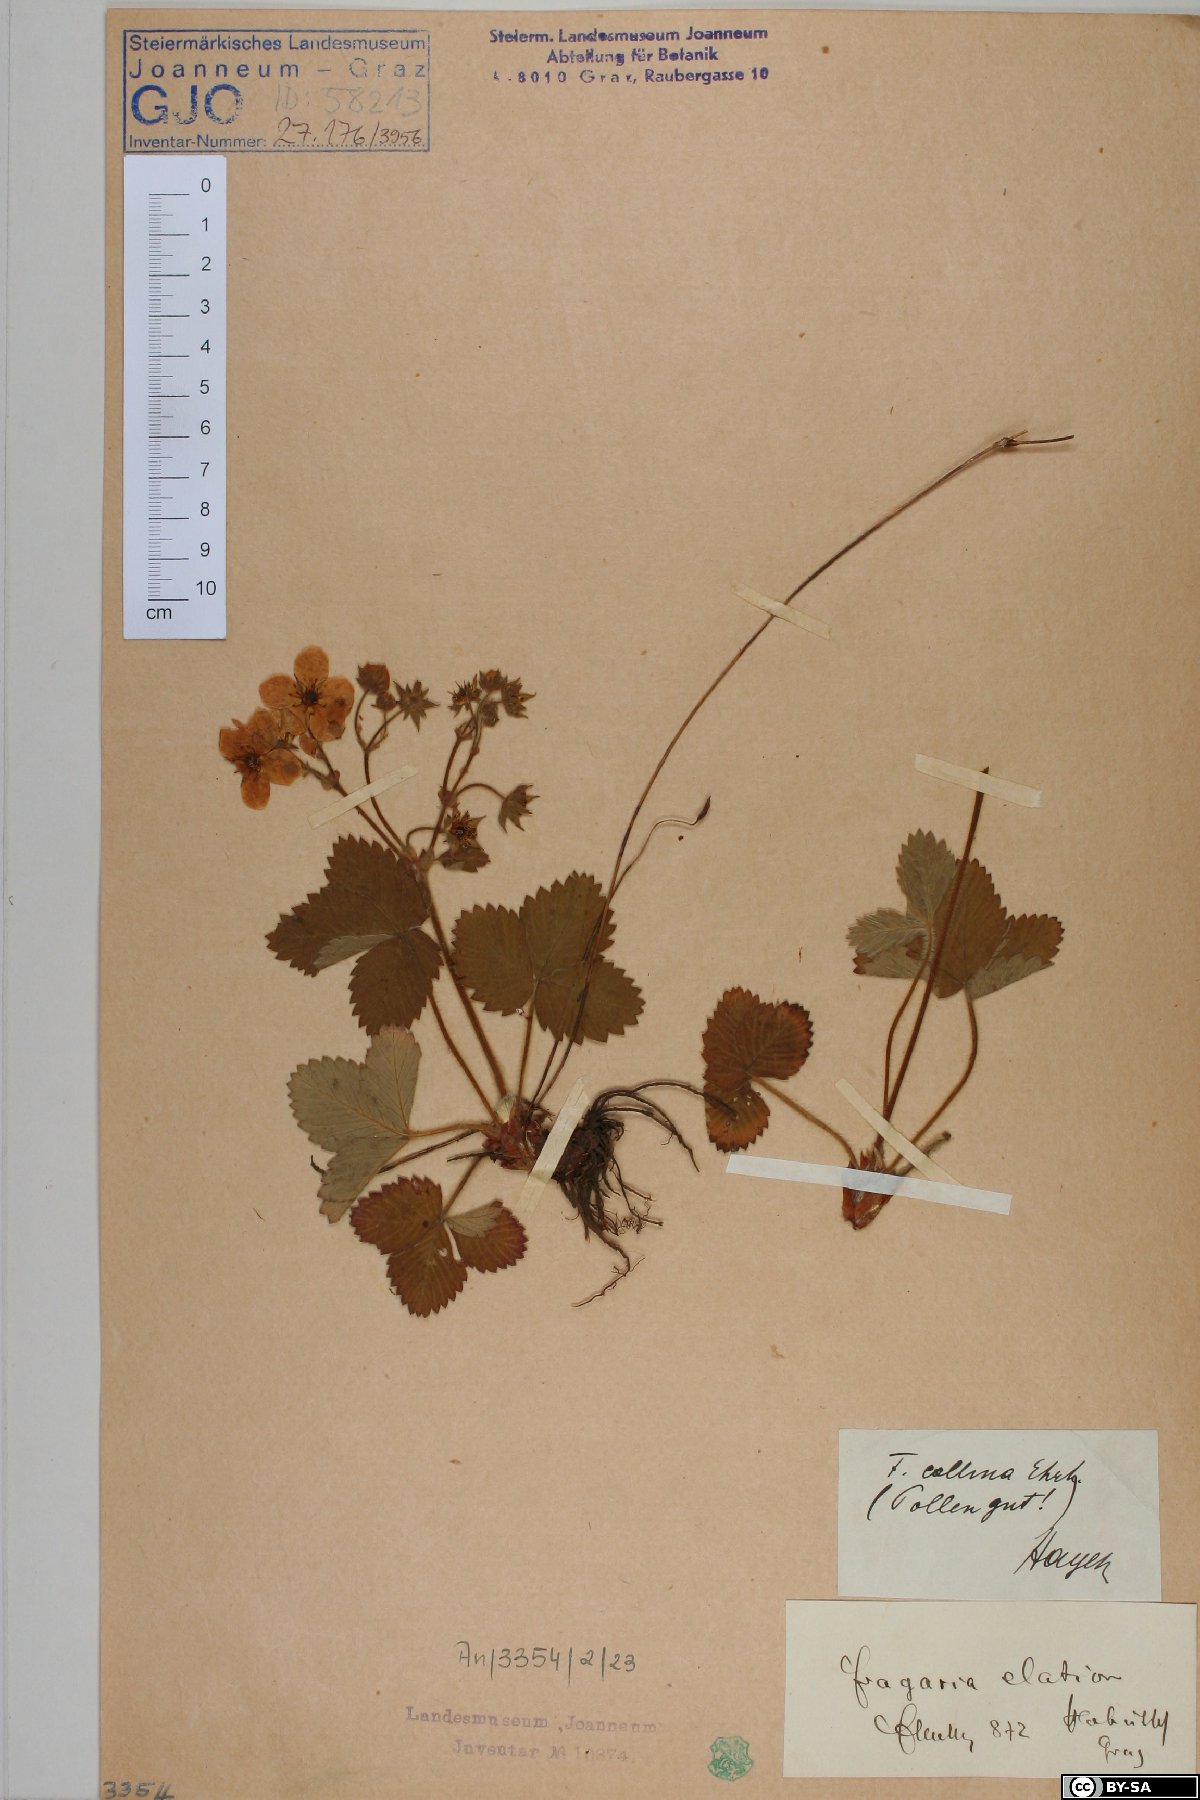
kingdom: Plantae
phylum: Tracheophyta
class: Magnoliopsida
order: Rosales
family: Rosaceae
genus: Fragaria
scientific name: Fragaria viridis
